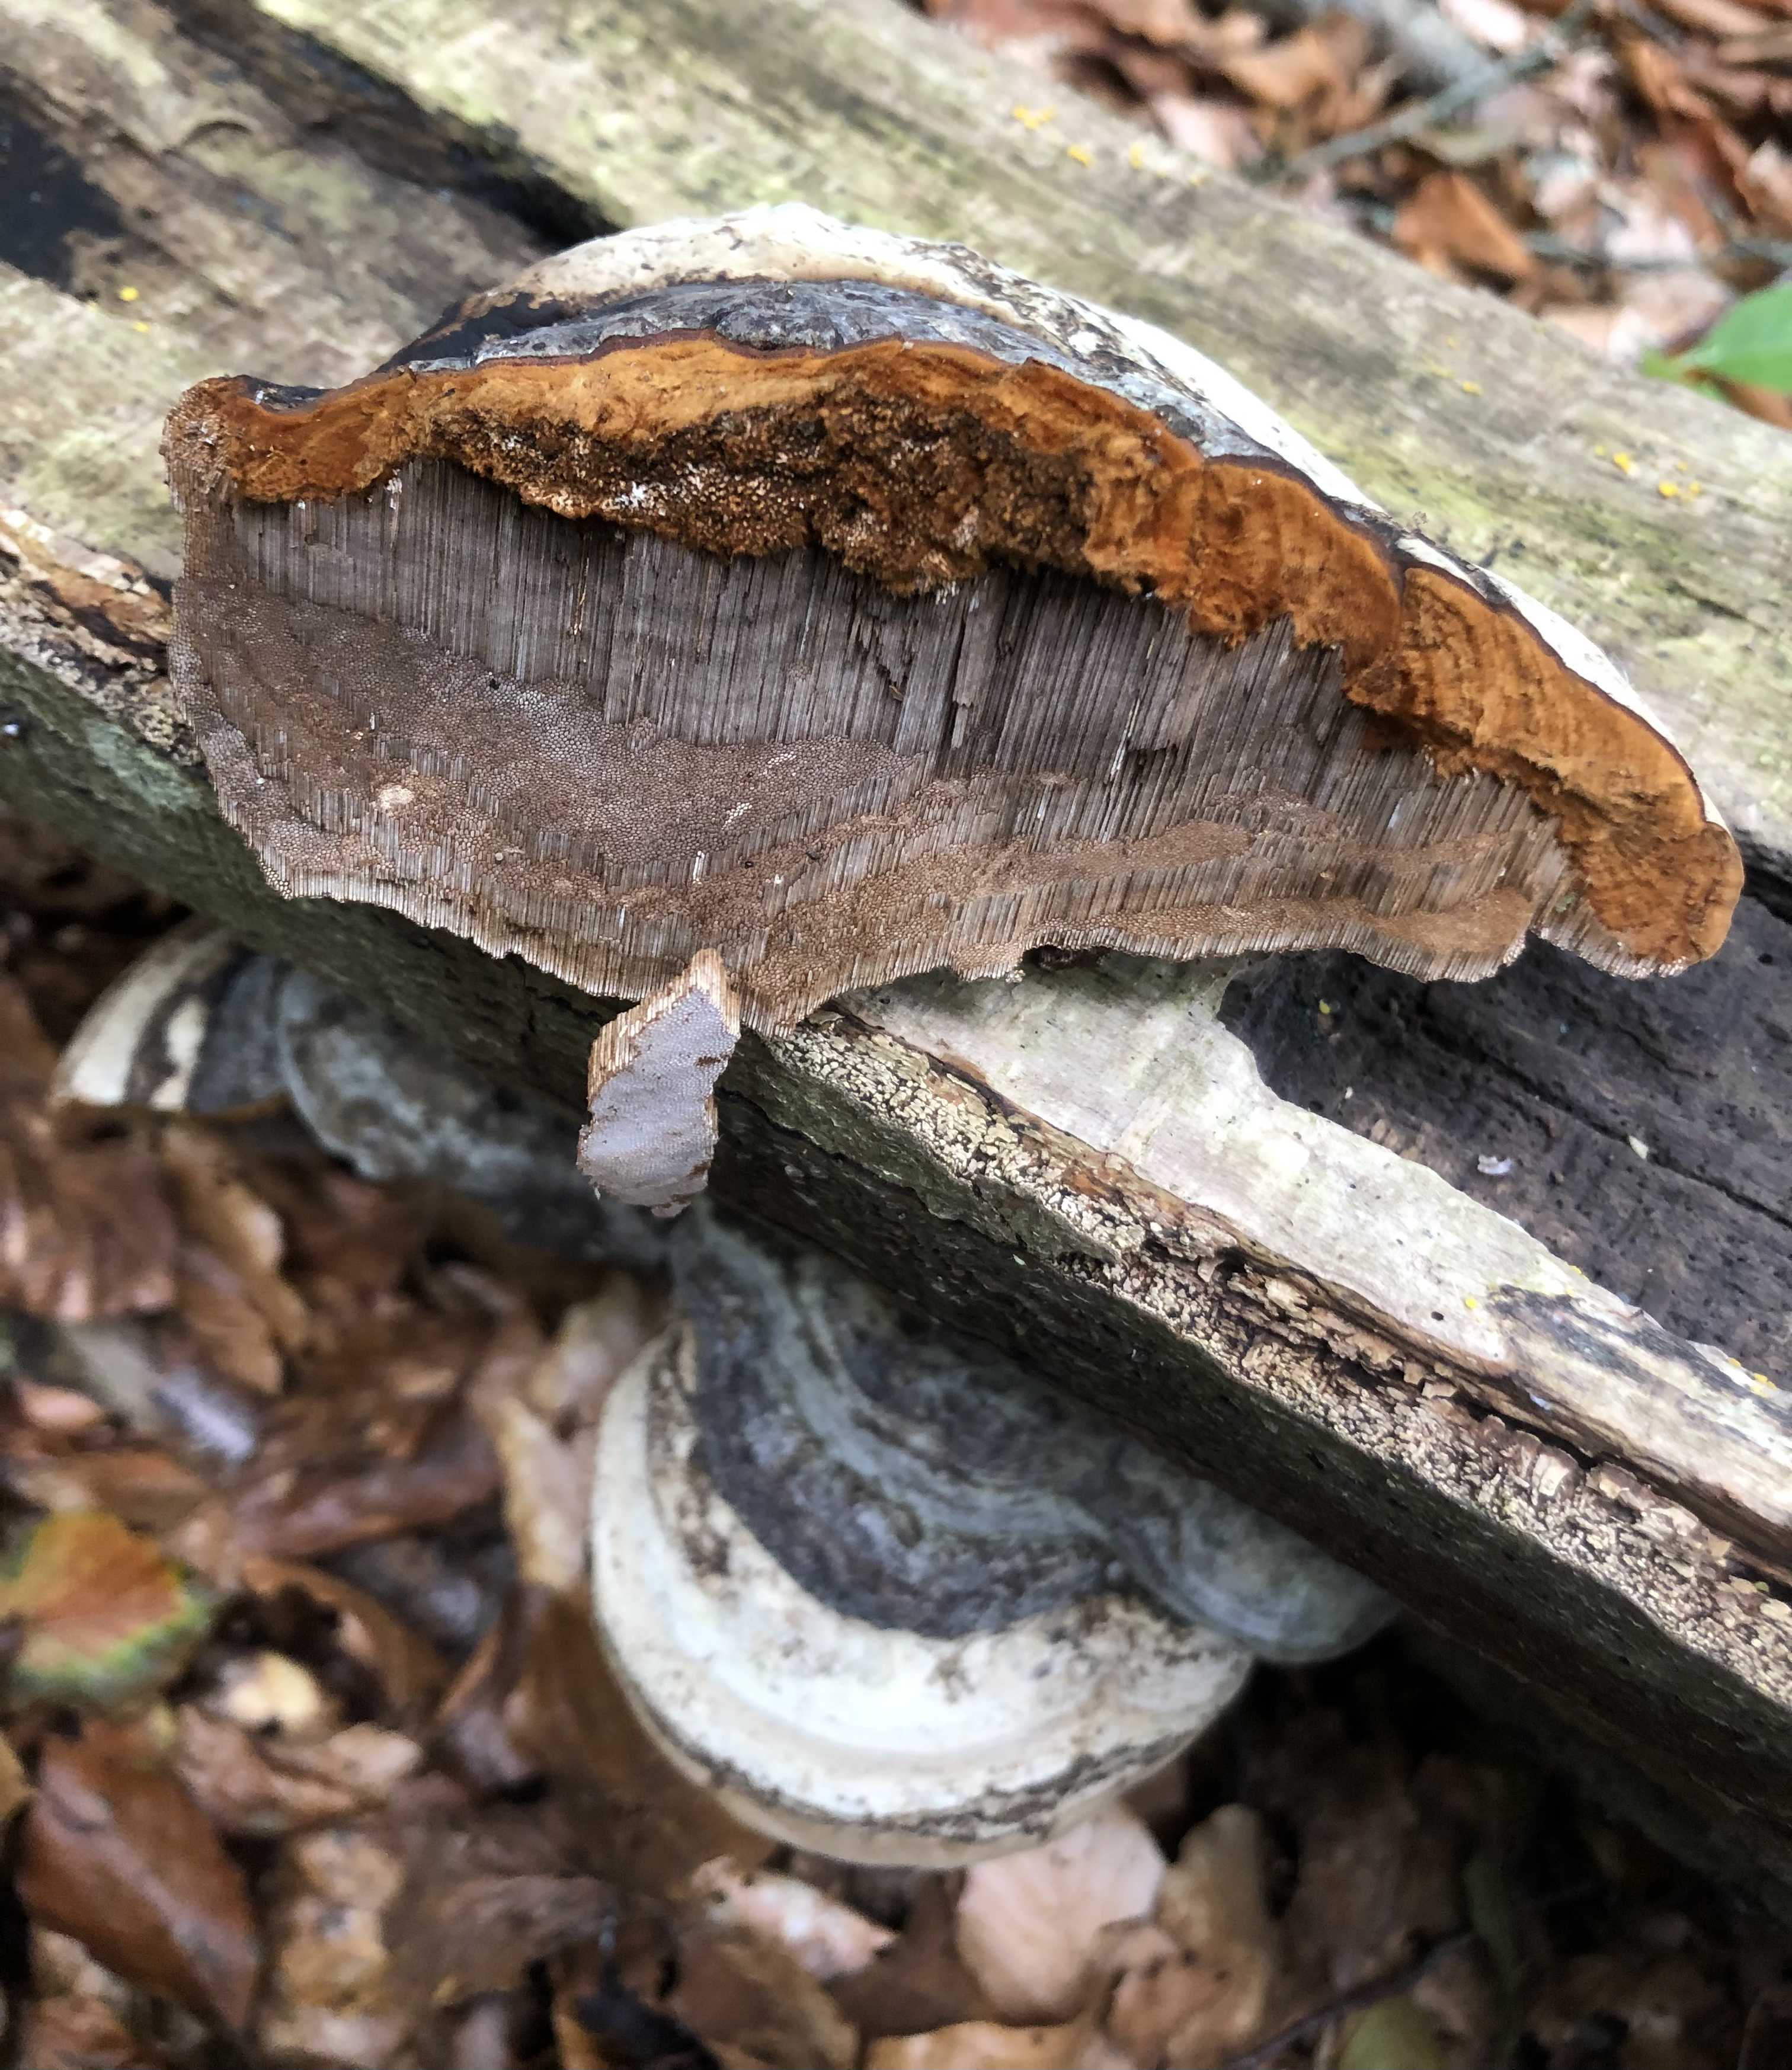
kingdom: Fungi
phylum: Basidiomycota
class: Agaricomycetes
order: Polyporales
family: Polyporaceae
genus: Fomes
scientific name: Fomes fomentarius
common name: tøndersvamp
